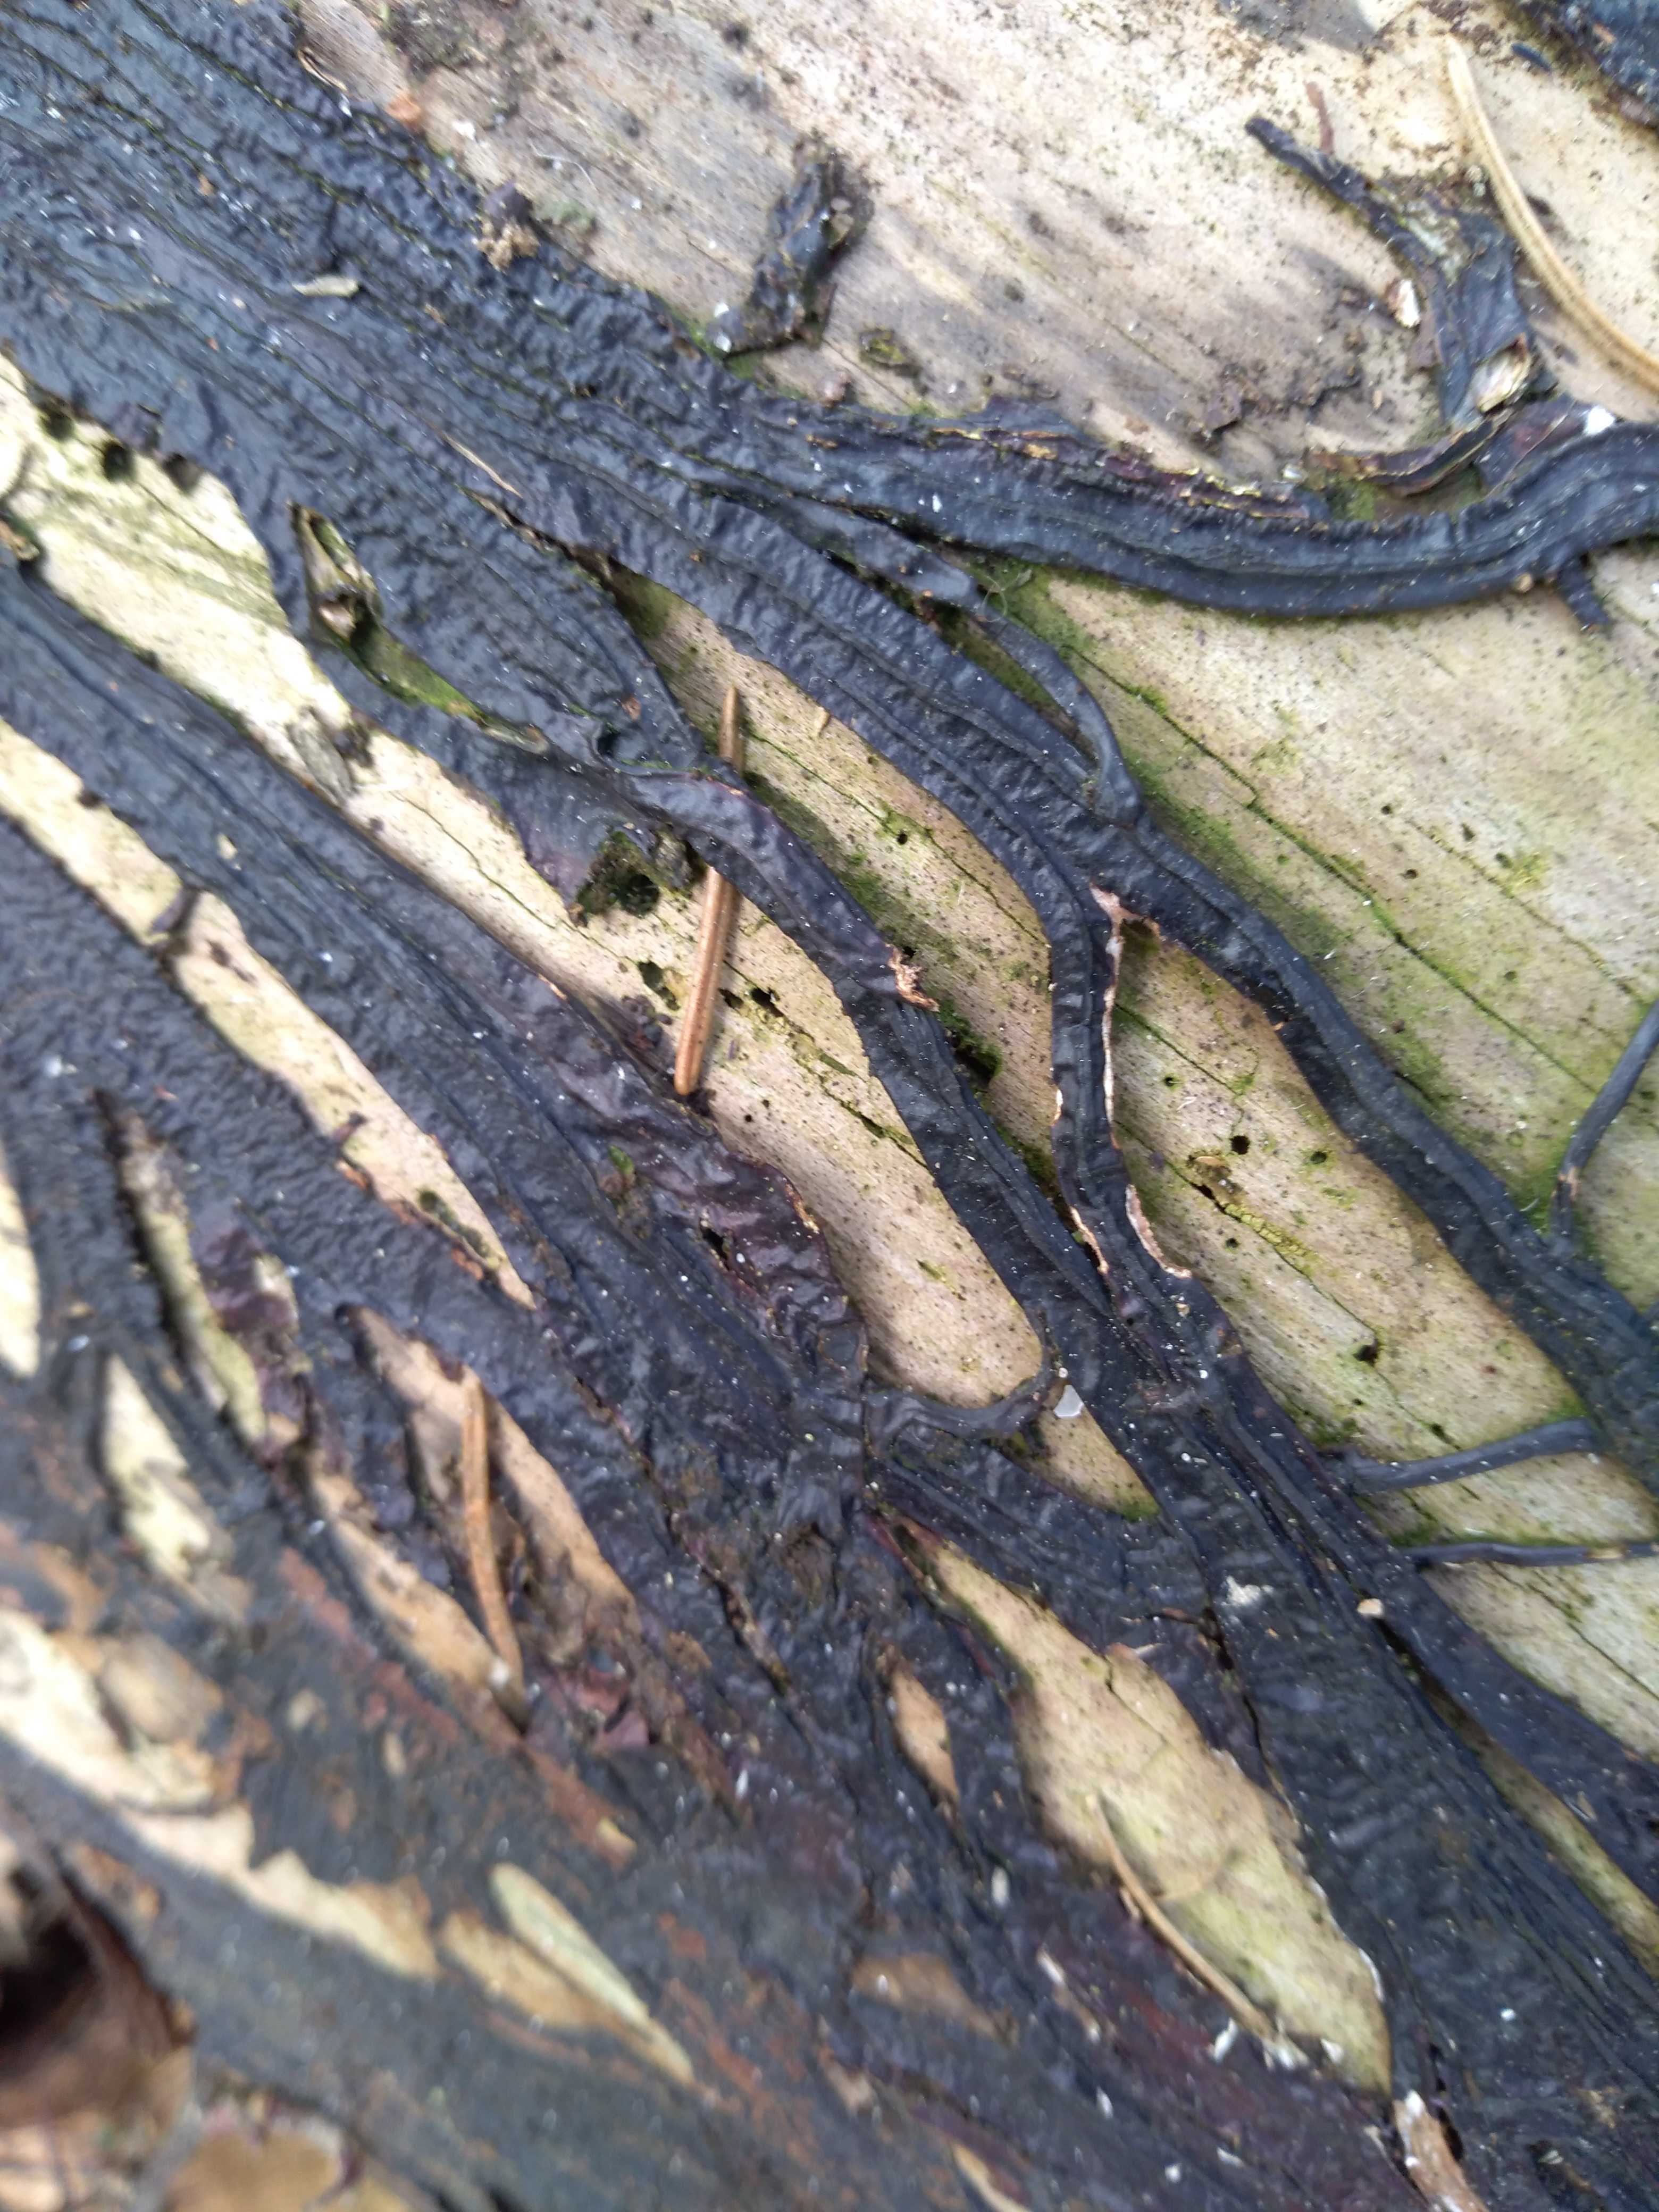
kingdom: Fungi
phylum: Basidiomycota
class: Agaricomycetes
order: Agaricales
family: Physalacriaceae
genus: Armillaria
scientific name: Armillaria
